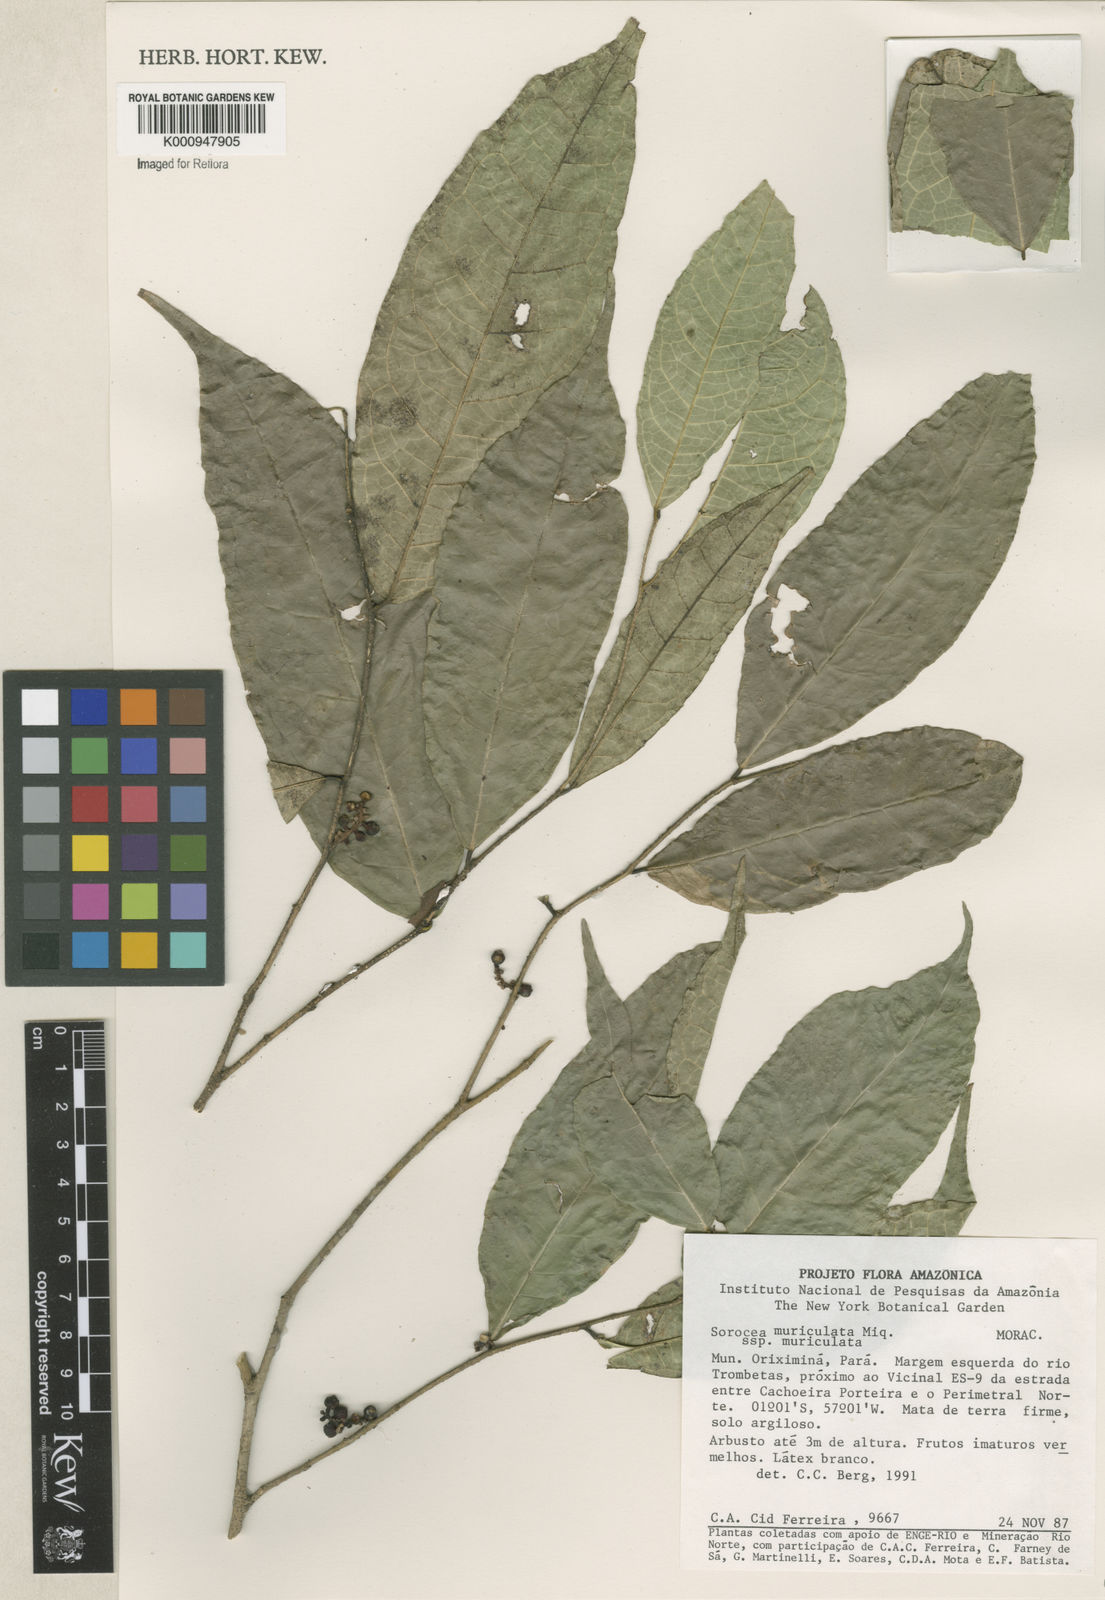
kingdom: Plantae
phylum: Tracheophyta
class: Magnoliopsida
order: Rosales
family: Moraceae
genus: Sorocea
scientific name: Sorocea muriculata
